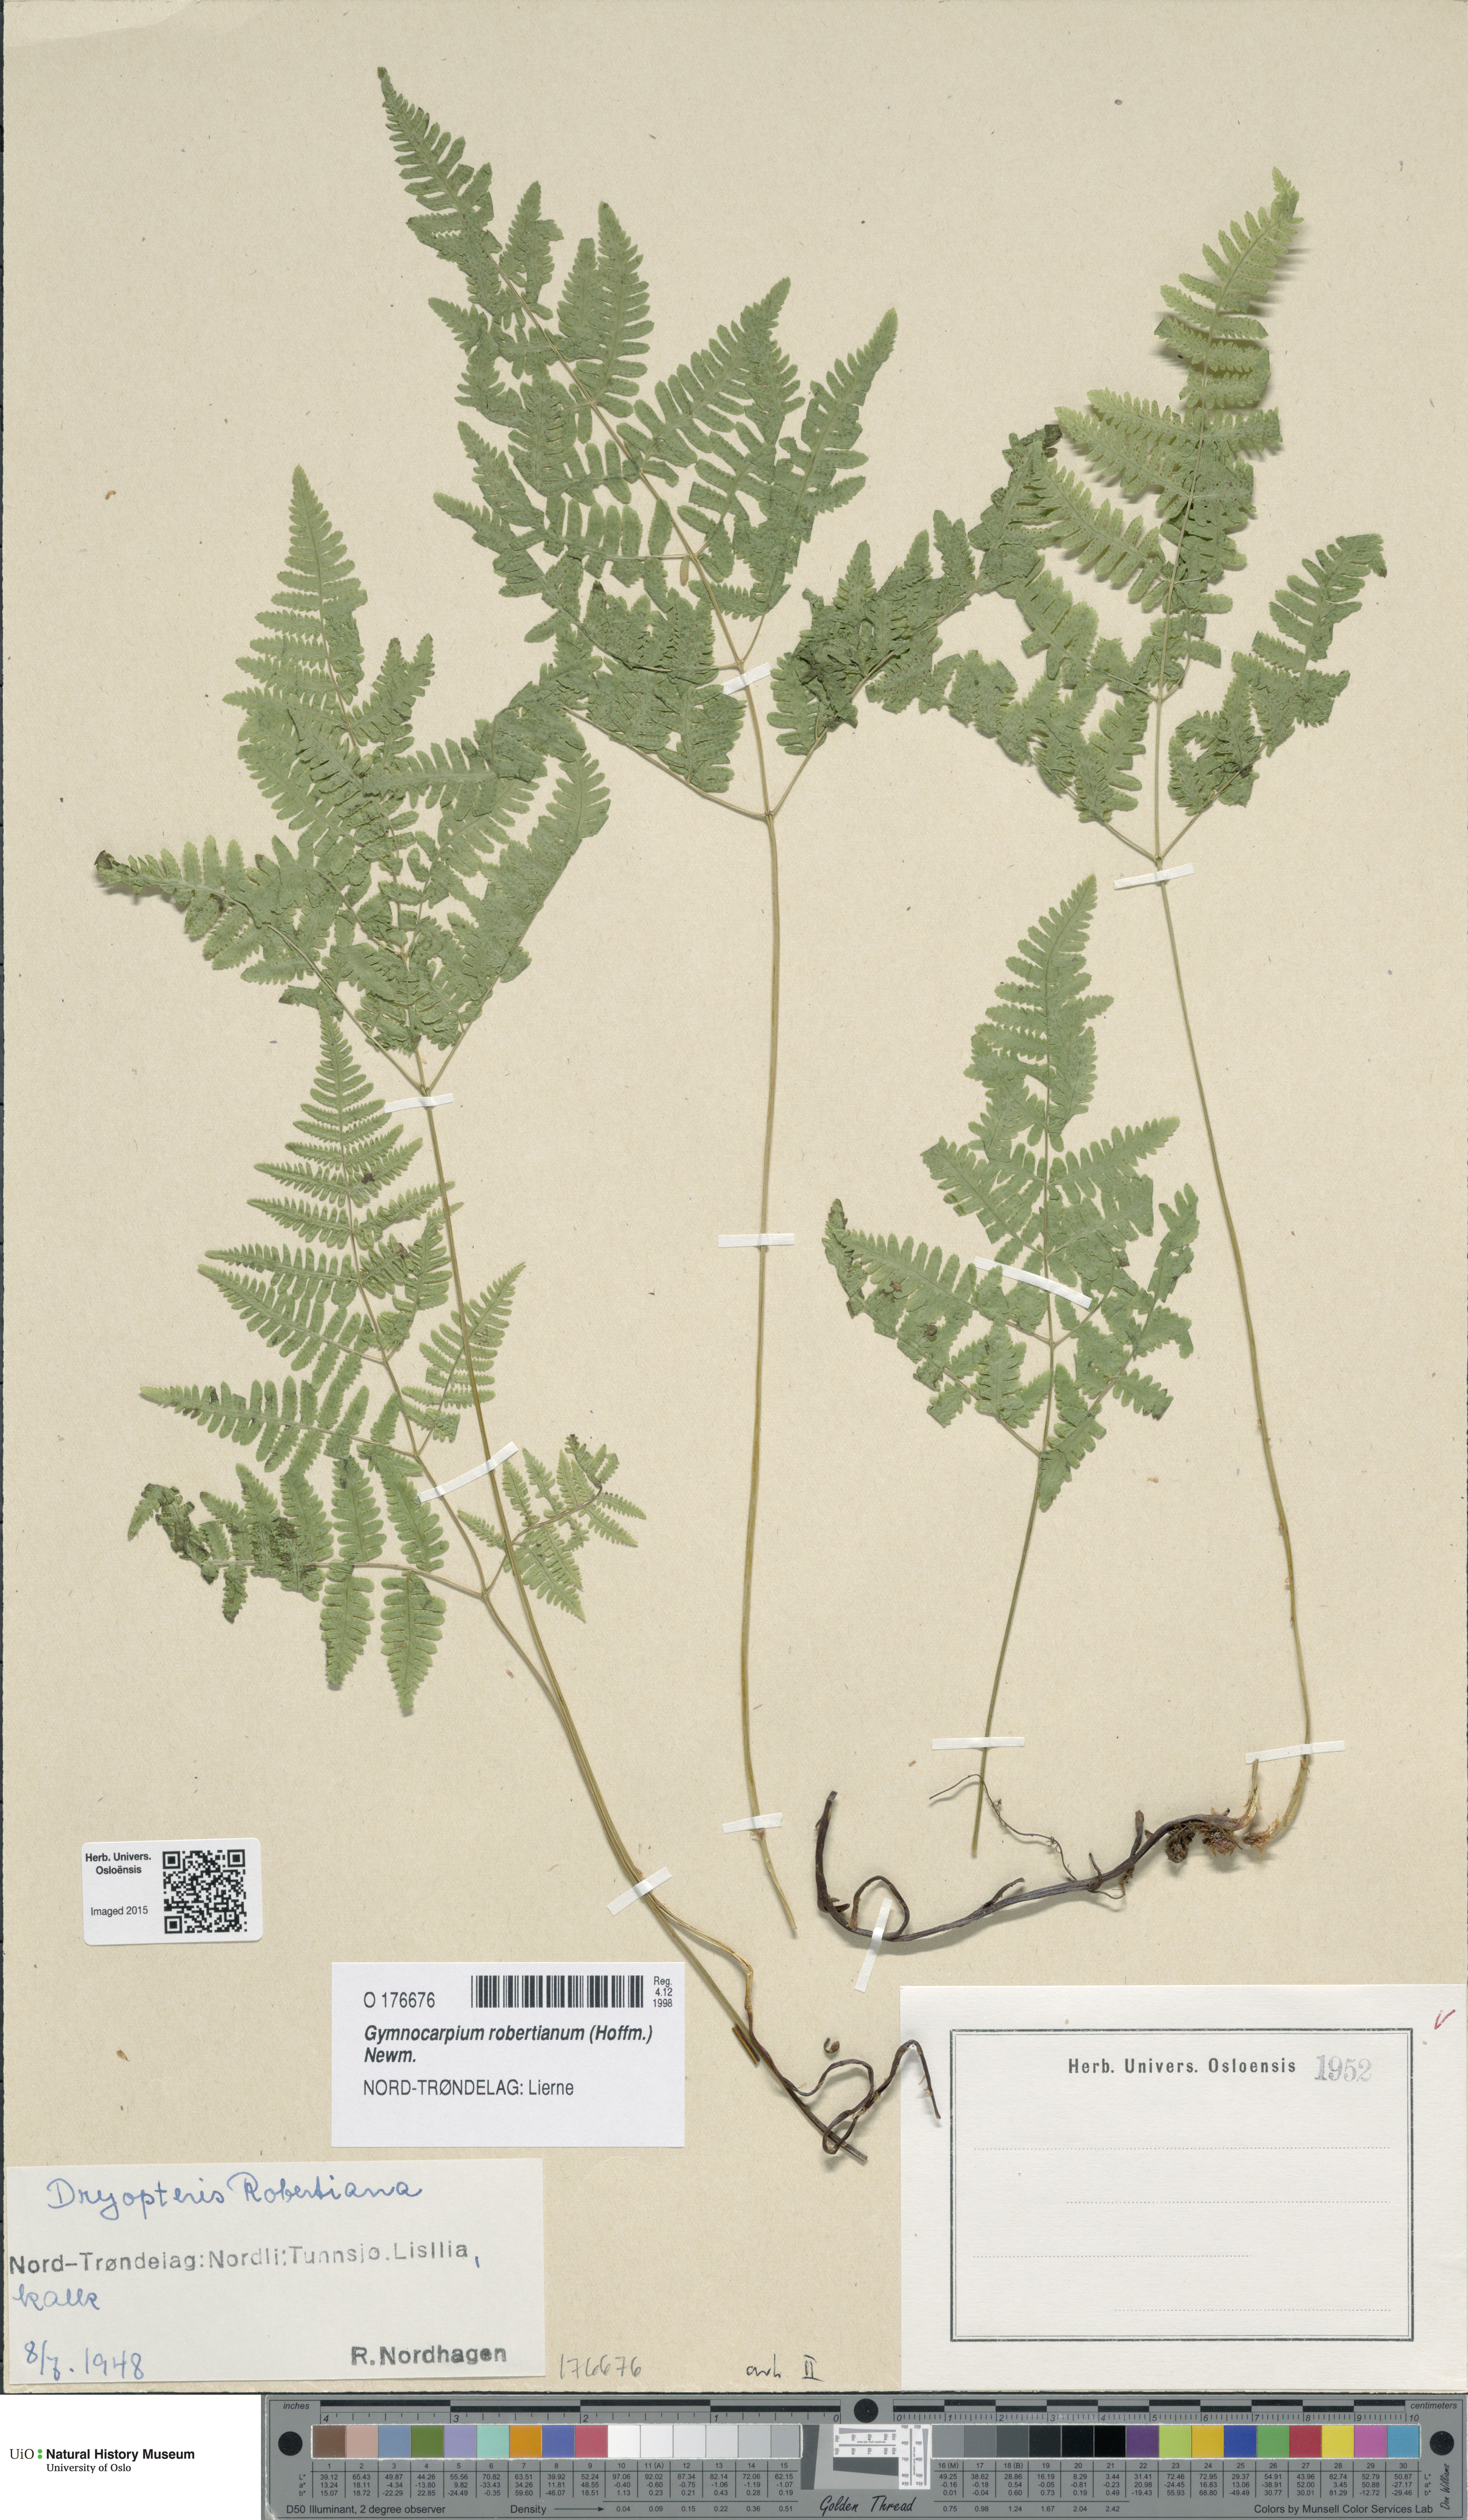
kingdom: Plantae
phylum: Tracheophyta
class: Polypodiopsida
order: Polypodiales
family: Cystopteridaceae
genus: Gymnocarpium
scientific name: Gymnocarpium robertianum
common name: Limestone fern
